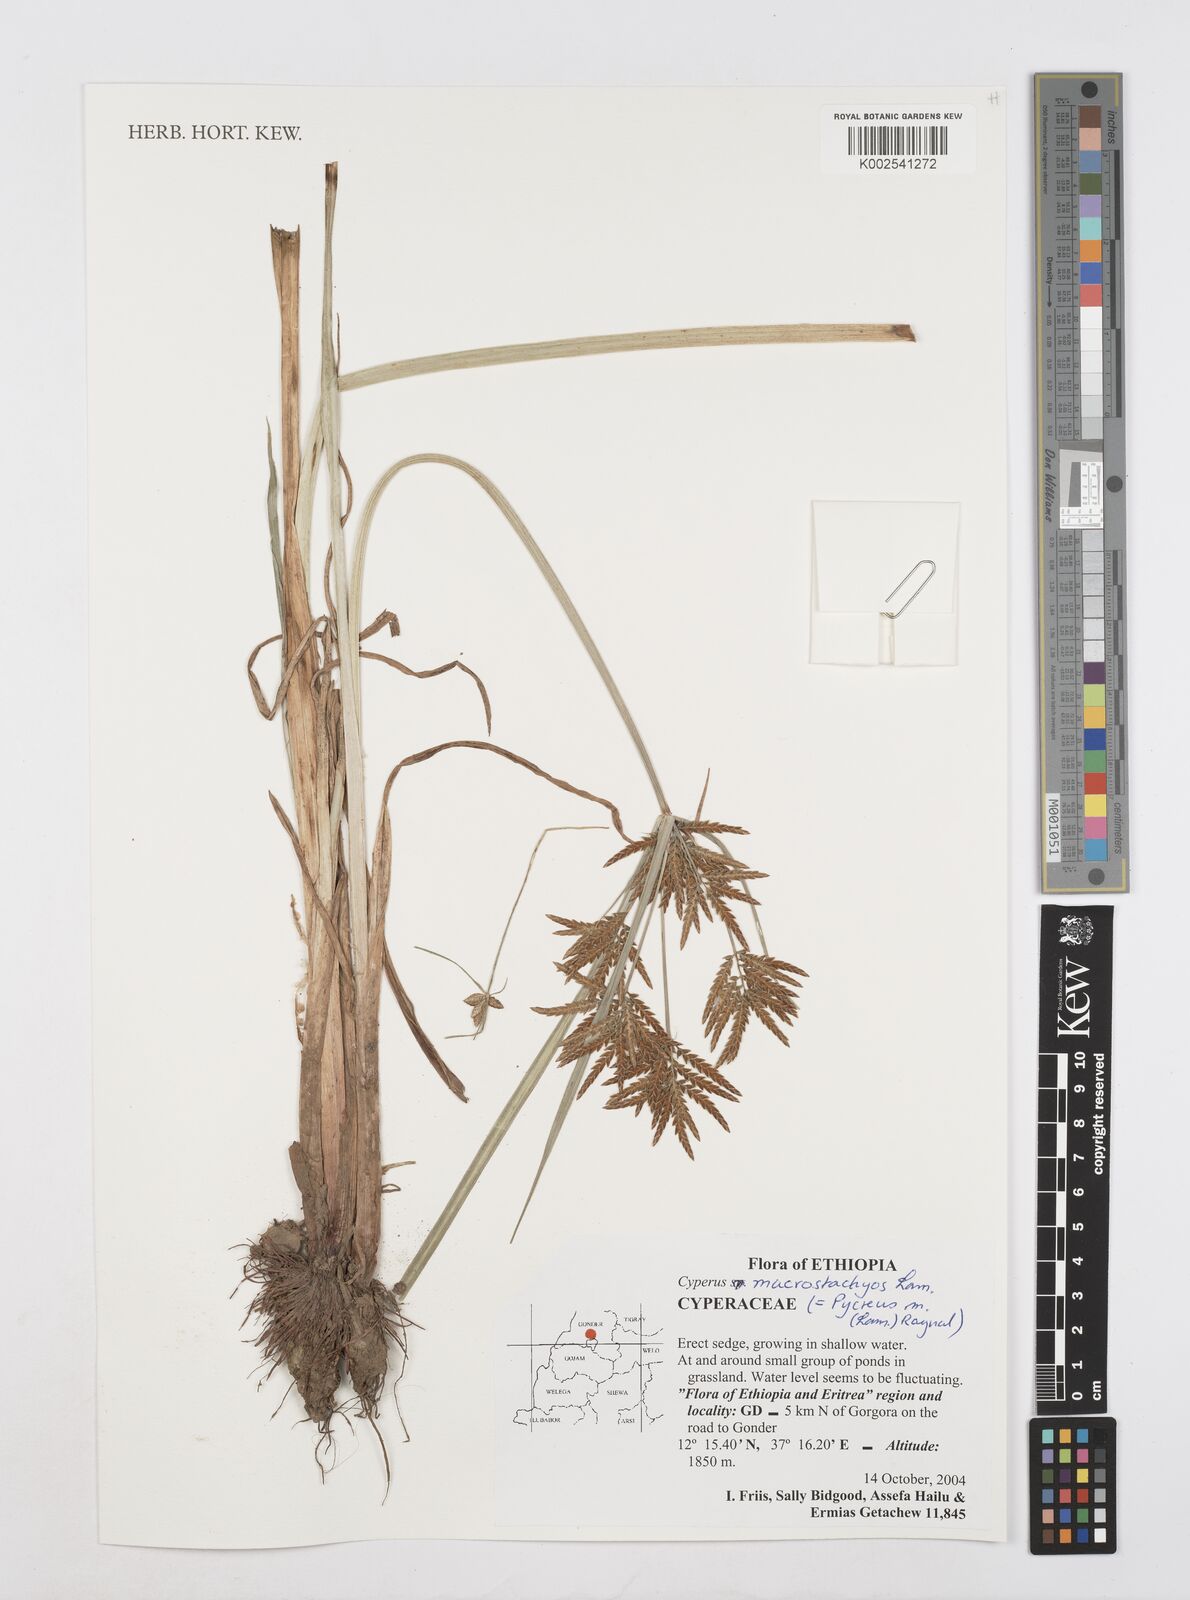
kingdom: Plantae
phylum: Tracheophyta
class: Liliopsida
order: Poales
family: Cyperaceae
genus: Cyperus
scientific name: Cyperus macrostachyos
